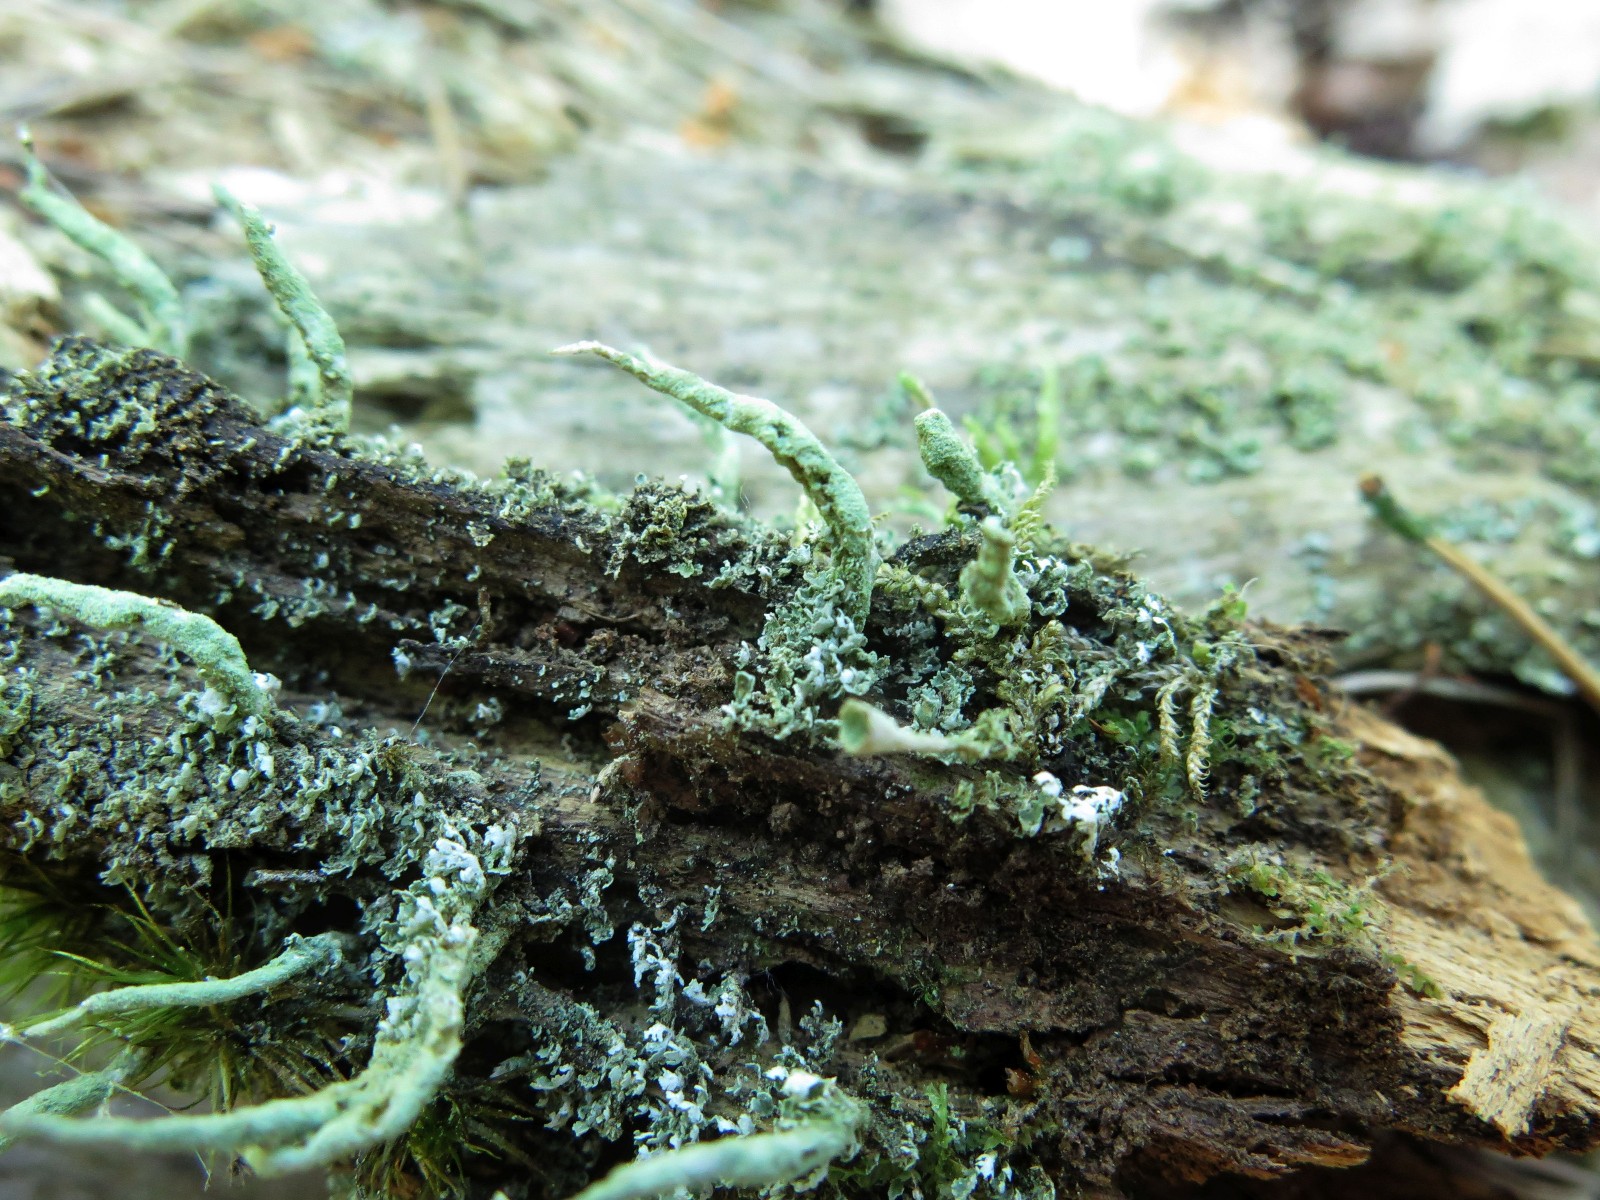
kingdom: Fungi
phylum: Ascomycota
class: Lecanoromycetes
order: Lecanorales
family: Cladoniaceae
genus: Cladonia
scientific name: Cladonia coniocraea
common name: træfods-bægerlav
